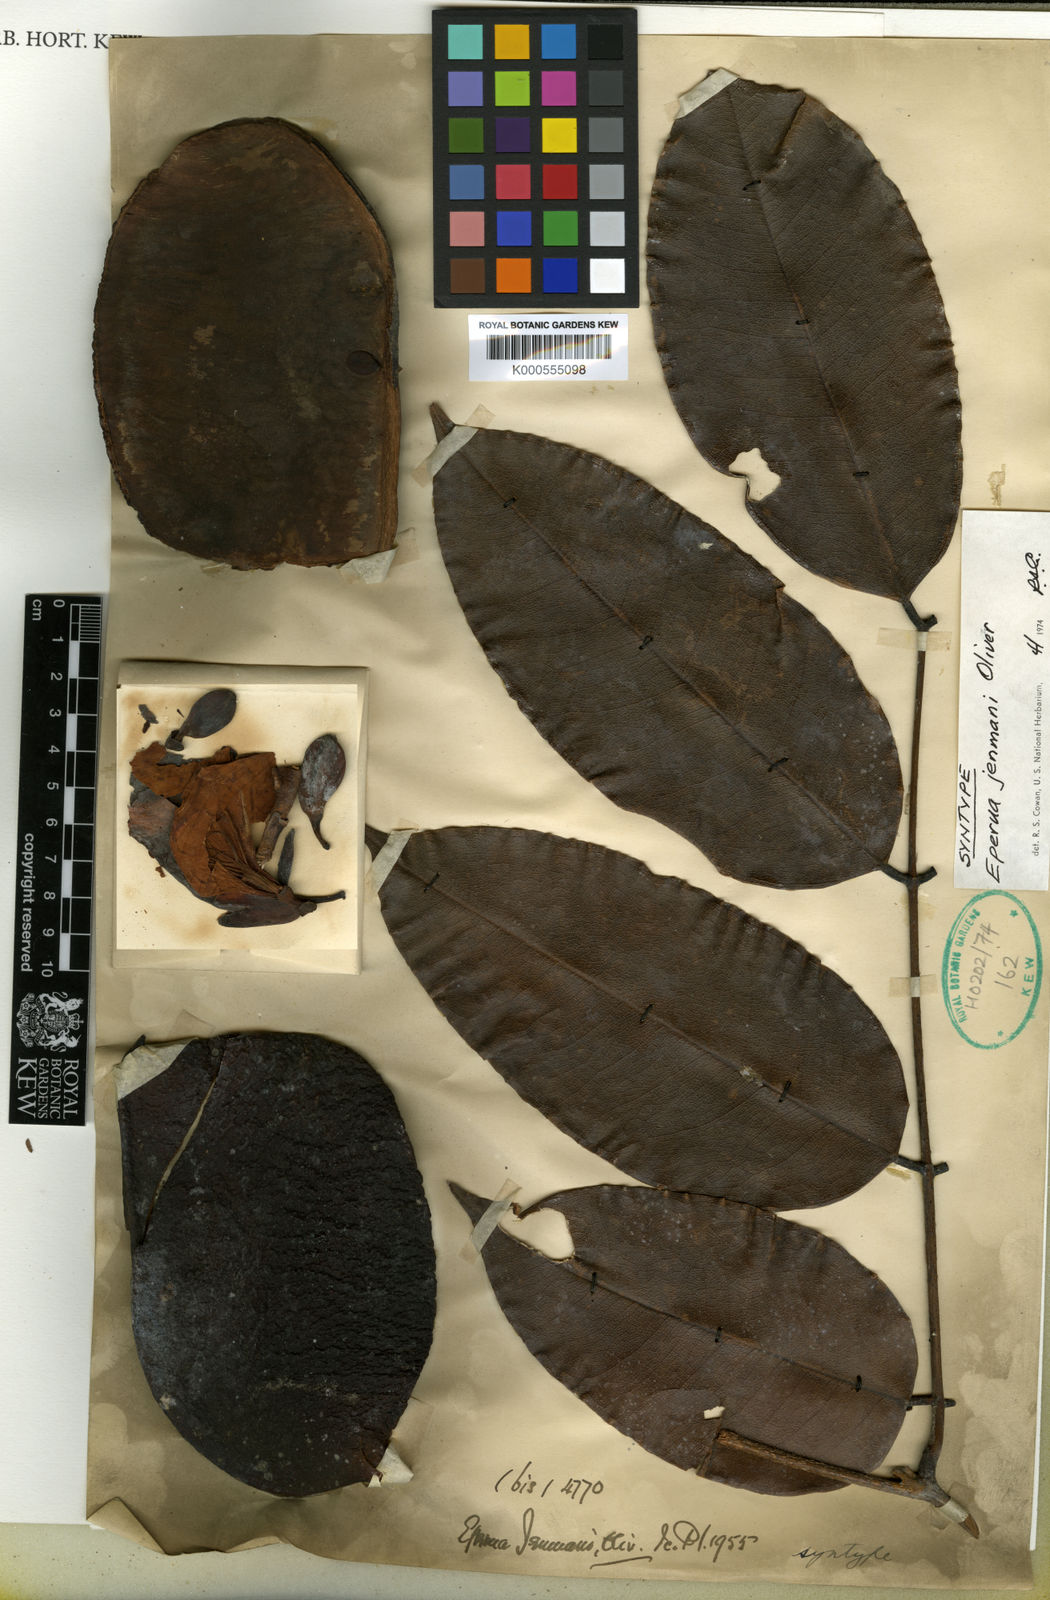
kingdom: Plantae
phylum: Tracheophyta
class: Magnoliopsida
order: Fabales
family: Fabaceae
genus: Eperua
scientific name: Eperua jenmanii
